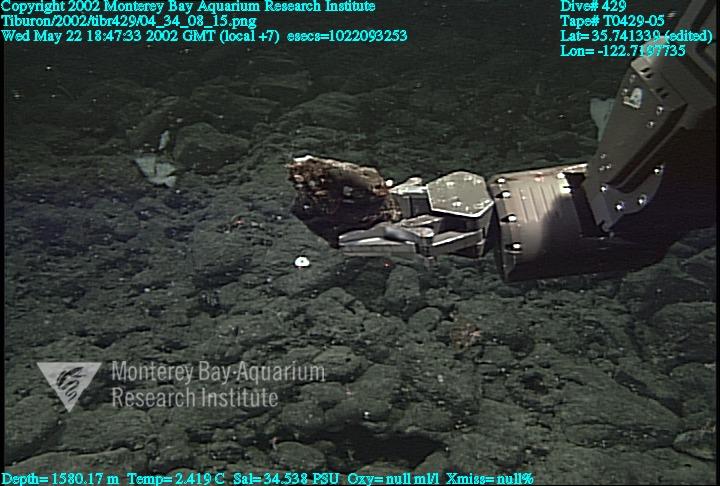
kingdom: Animalia
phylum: Porifera
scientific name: Porifera
